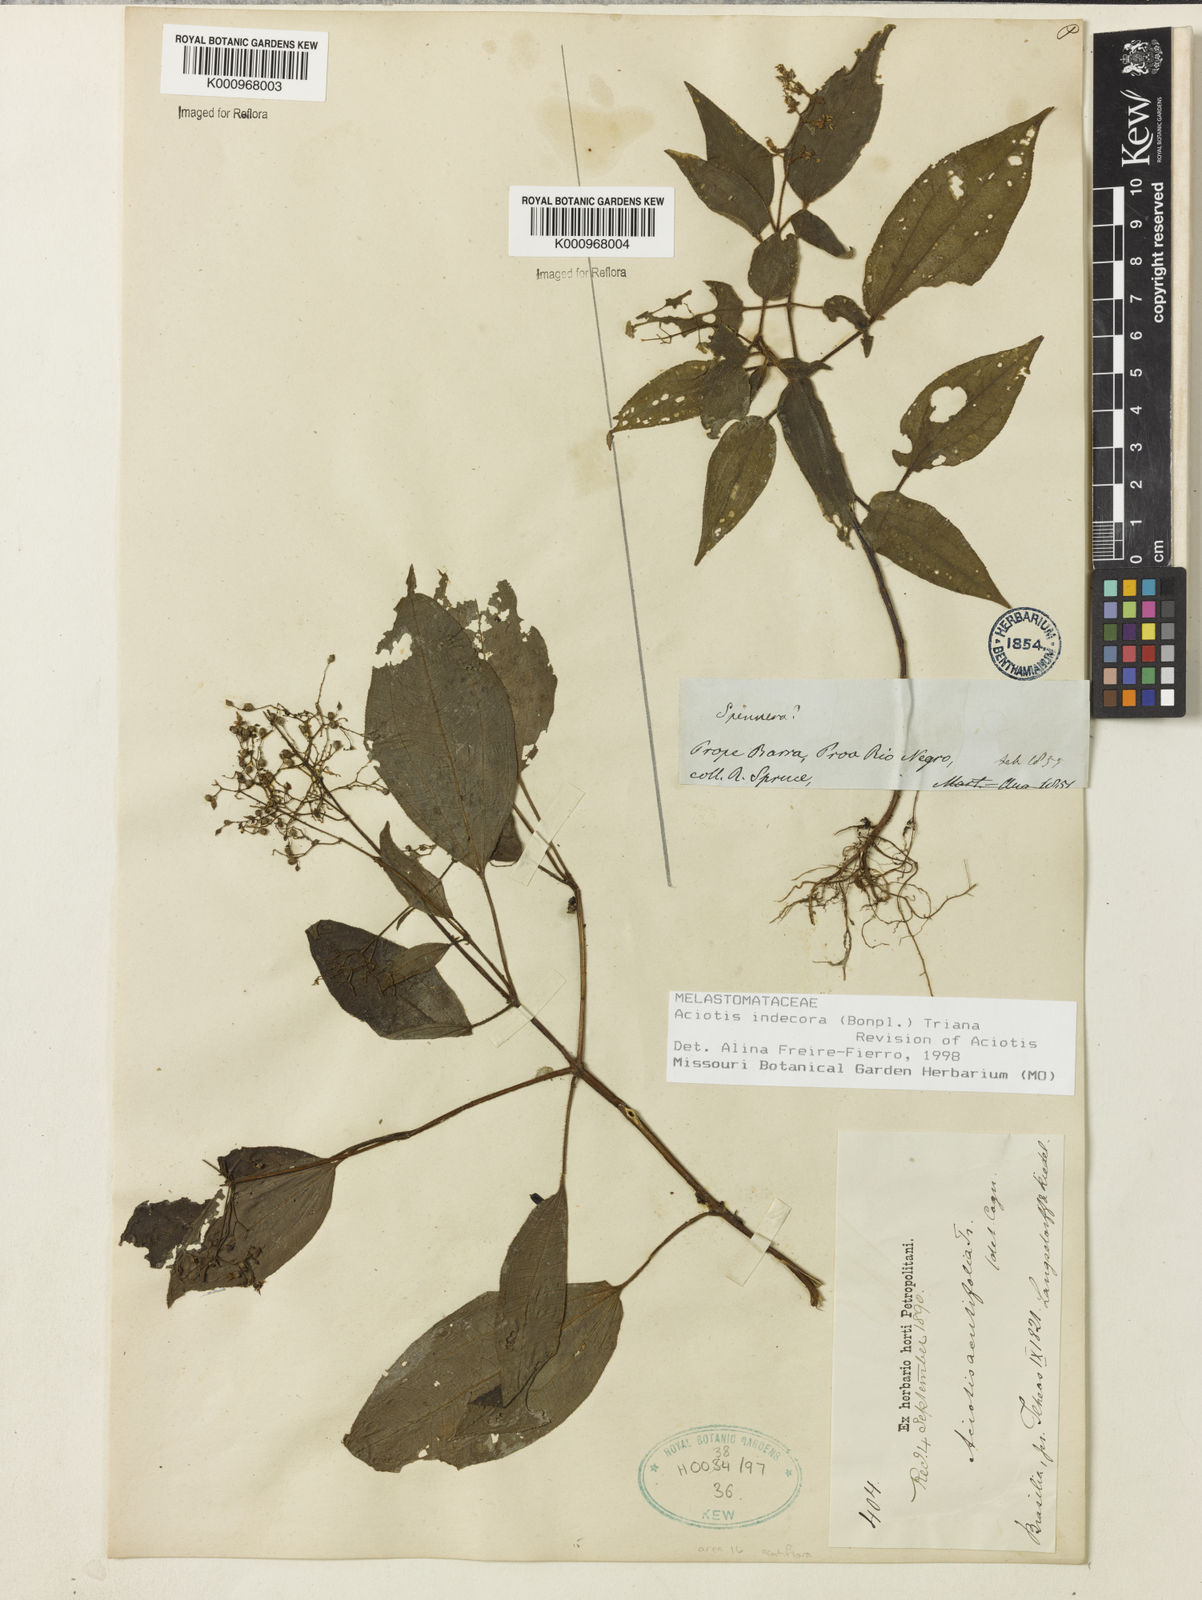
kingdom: Plantae
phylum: Tracheophyta
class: Magnoliopsida
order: Myrtales
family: Melastomataceae
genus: Aciotis
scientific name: Aciotis indecora
